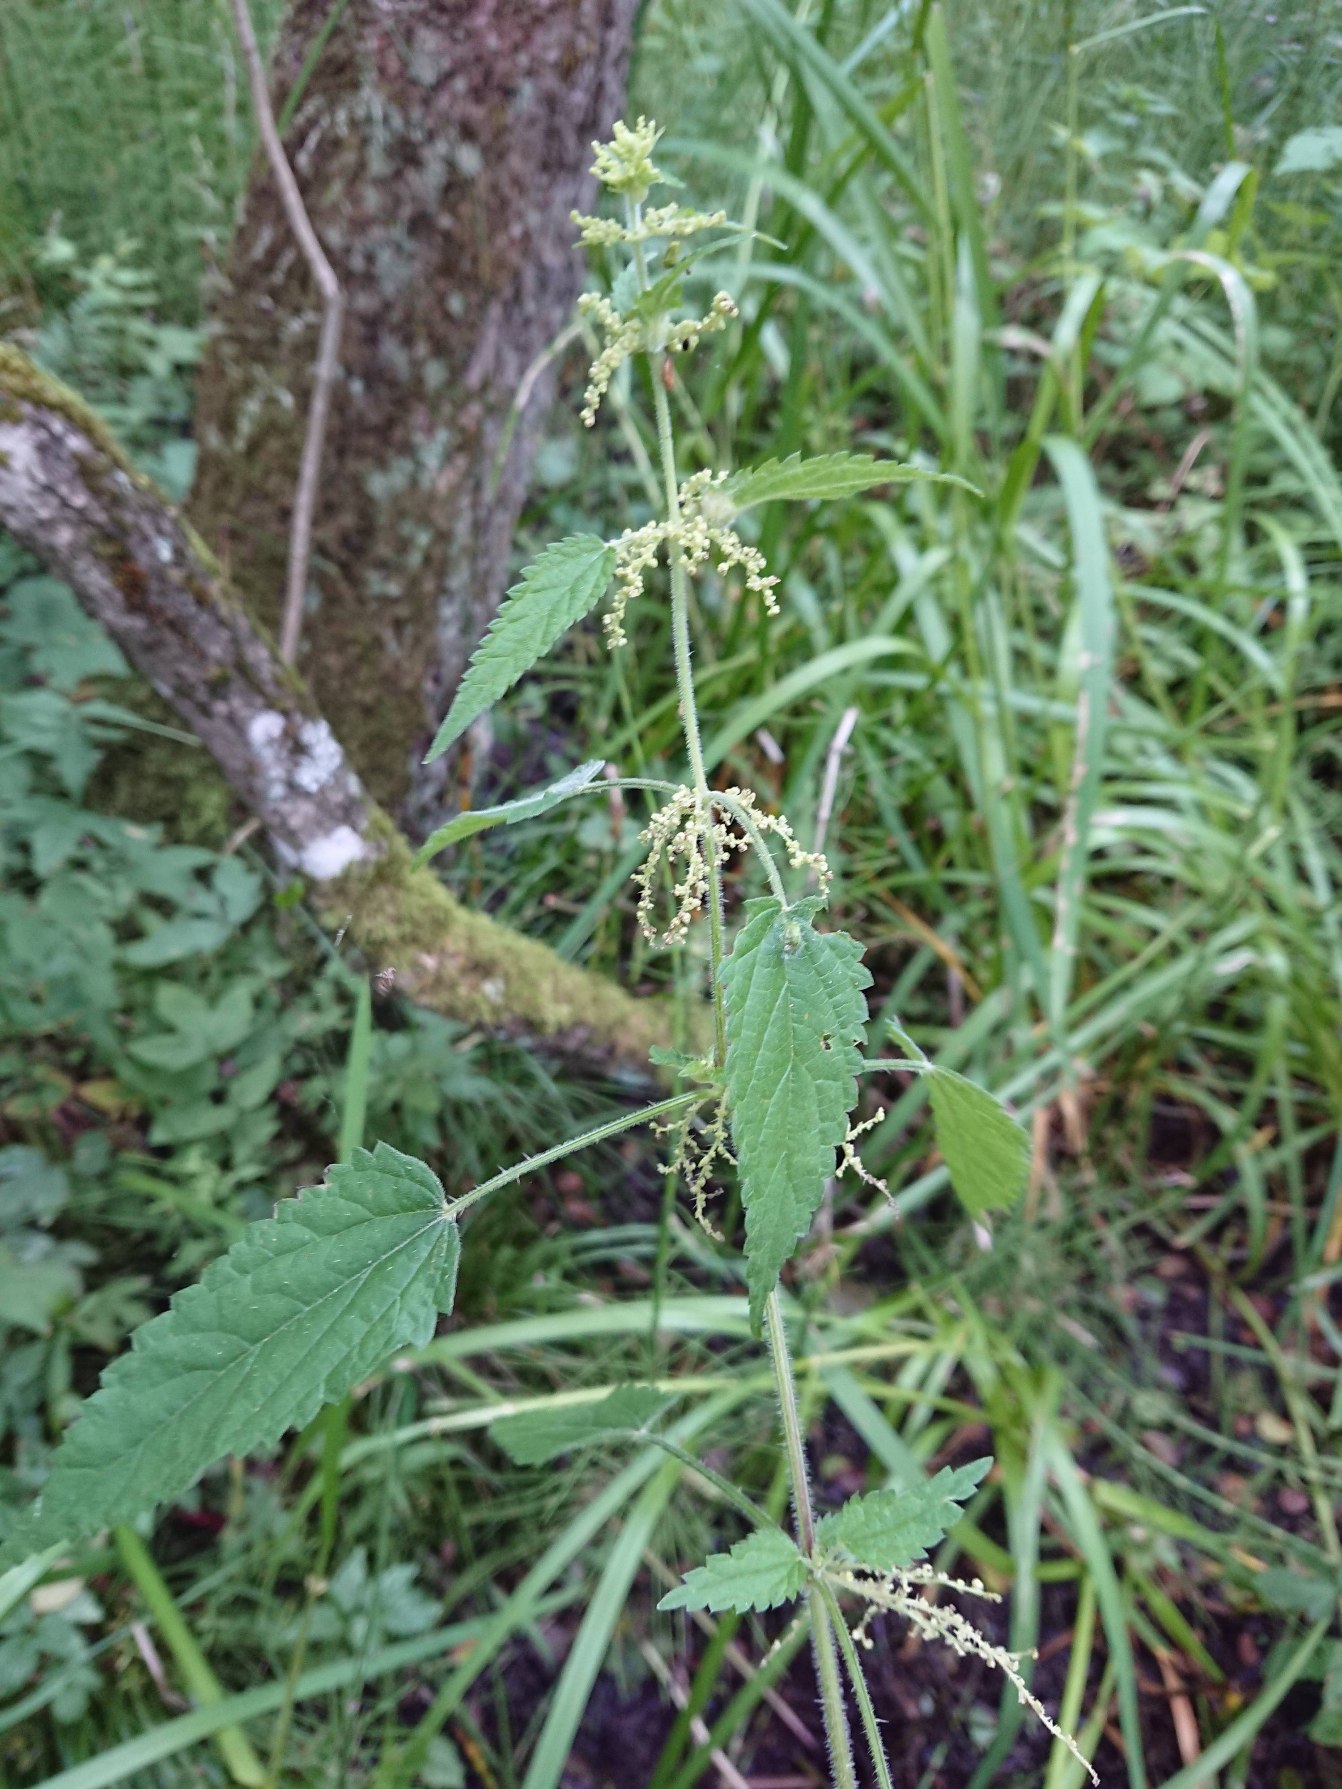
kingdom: Plantae
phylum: Tracheophyta
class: Magnoliopsida
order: Rosales
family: Urticaceae
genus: Urtica
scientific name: Urtica dioica
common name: Skov-nælde
